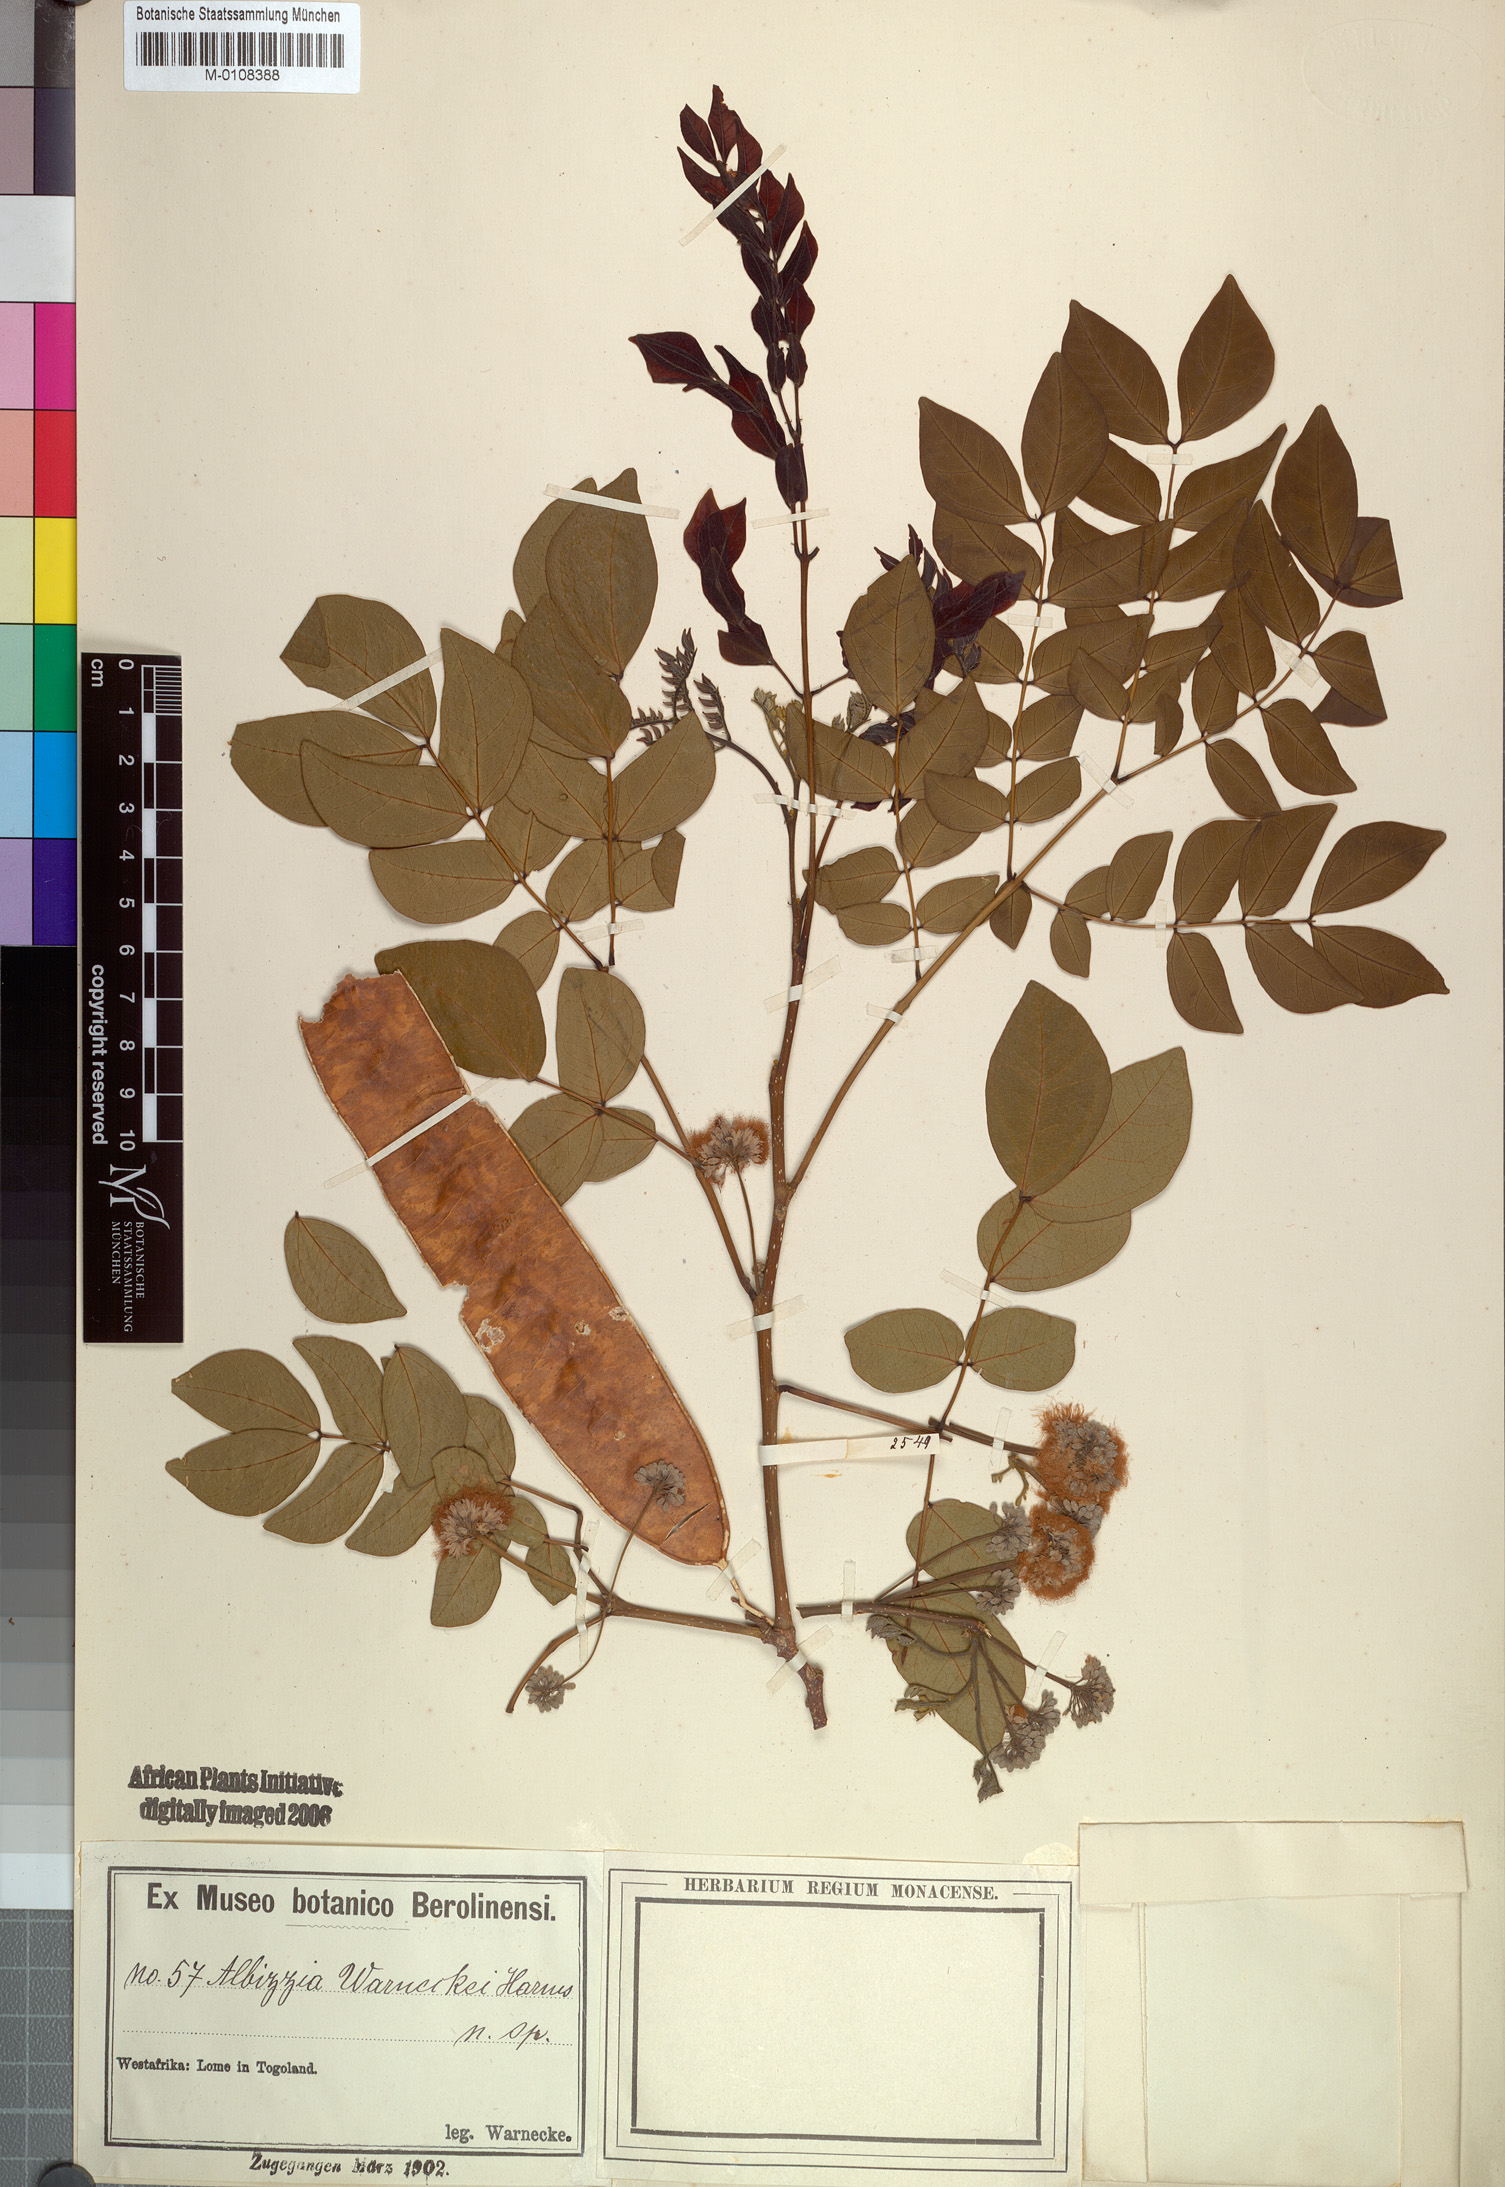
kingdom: Plantae
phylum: Tracheophyta
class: Magnoliopsida
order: Fabales
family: Fabaceae
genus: Albizia
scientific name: Albizia glaberrima
